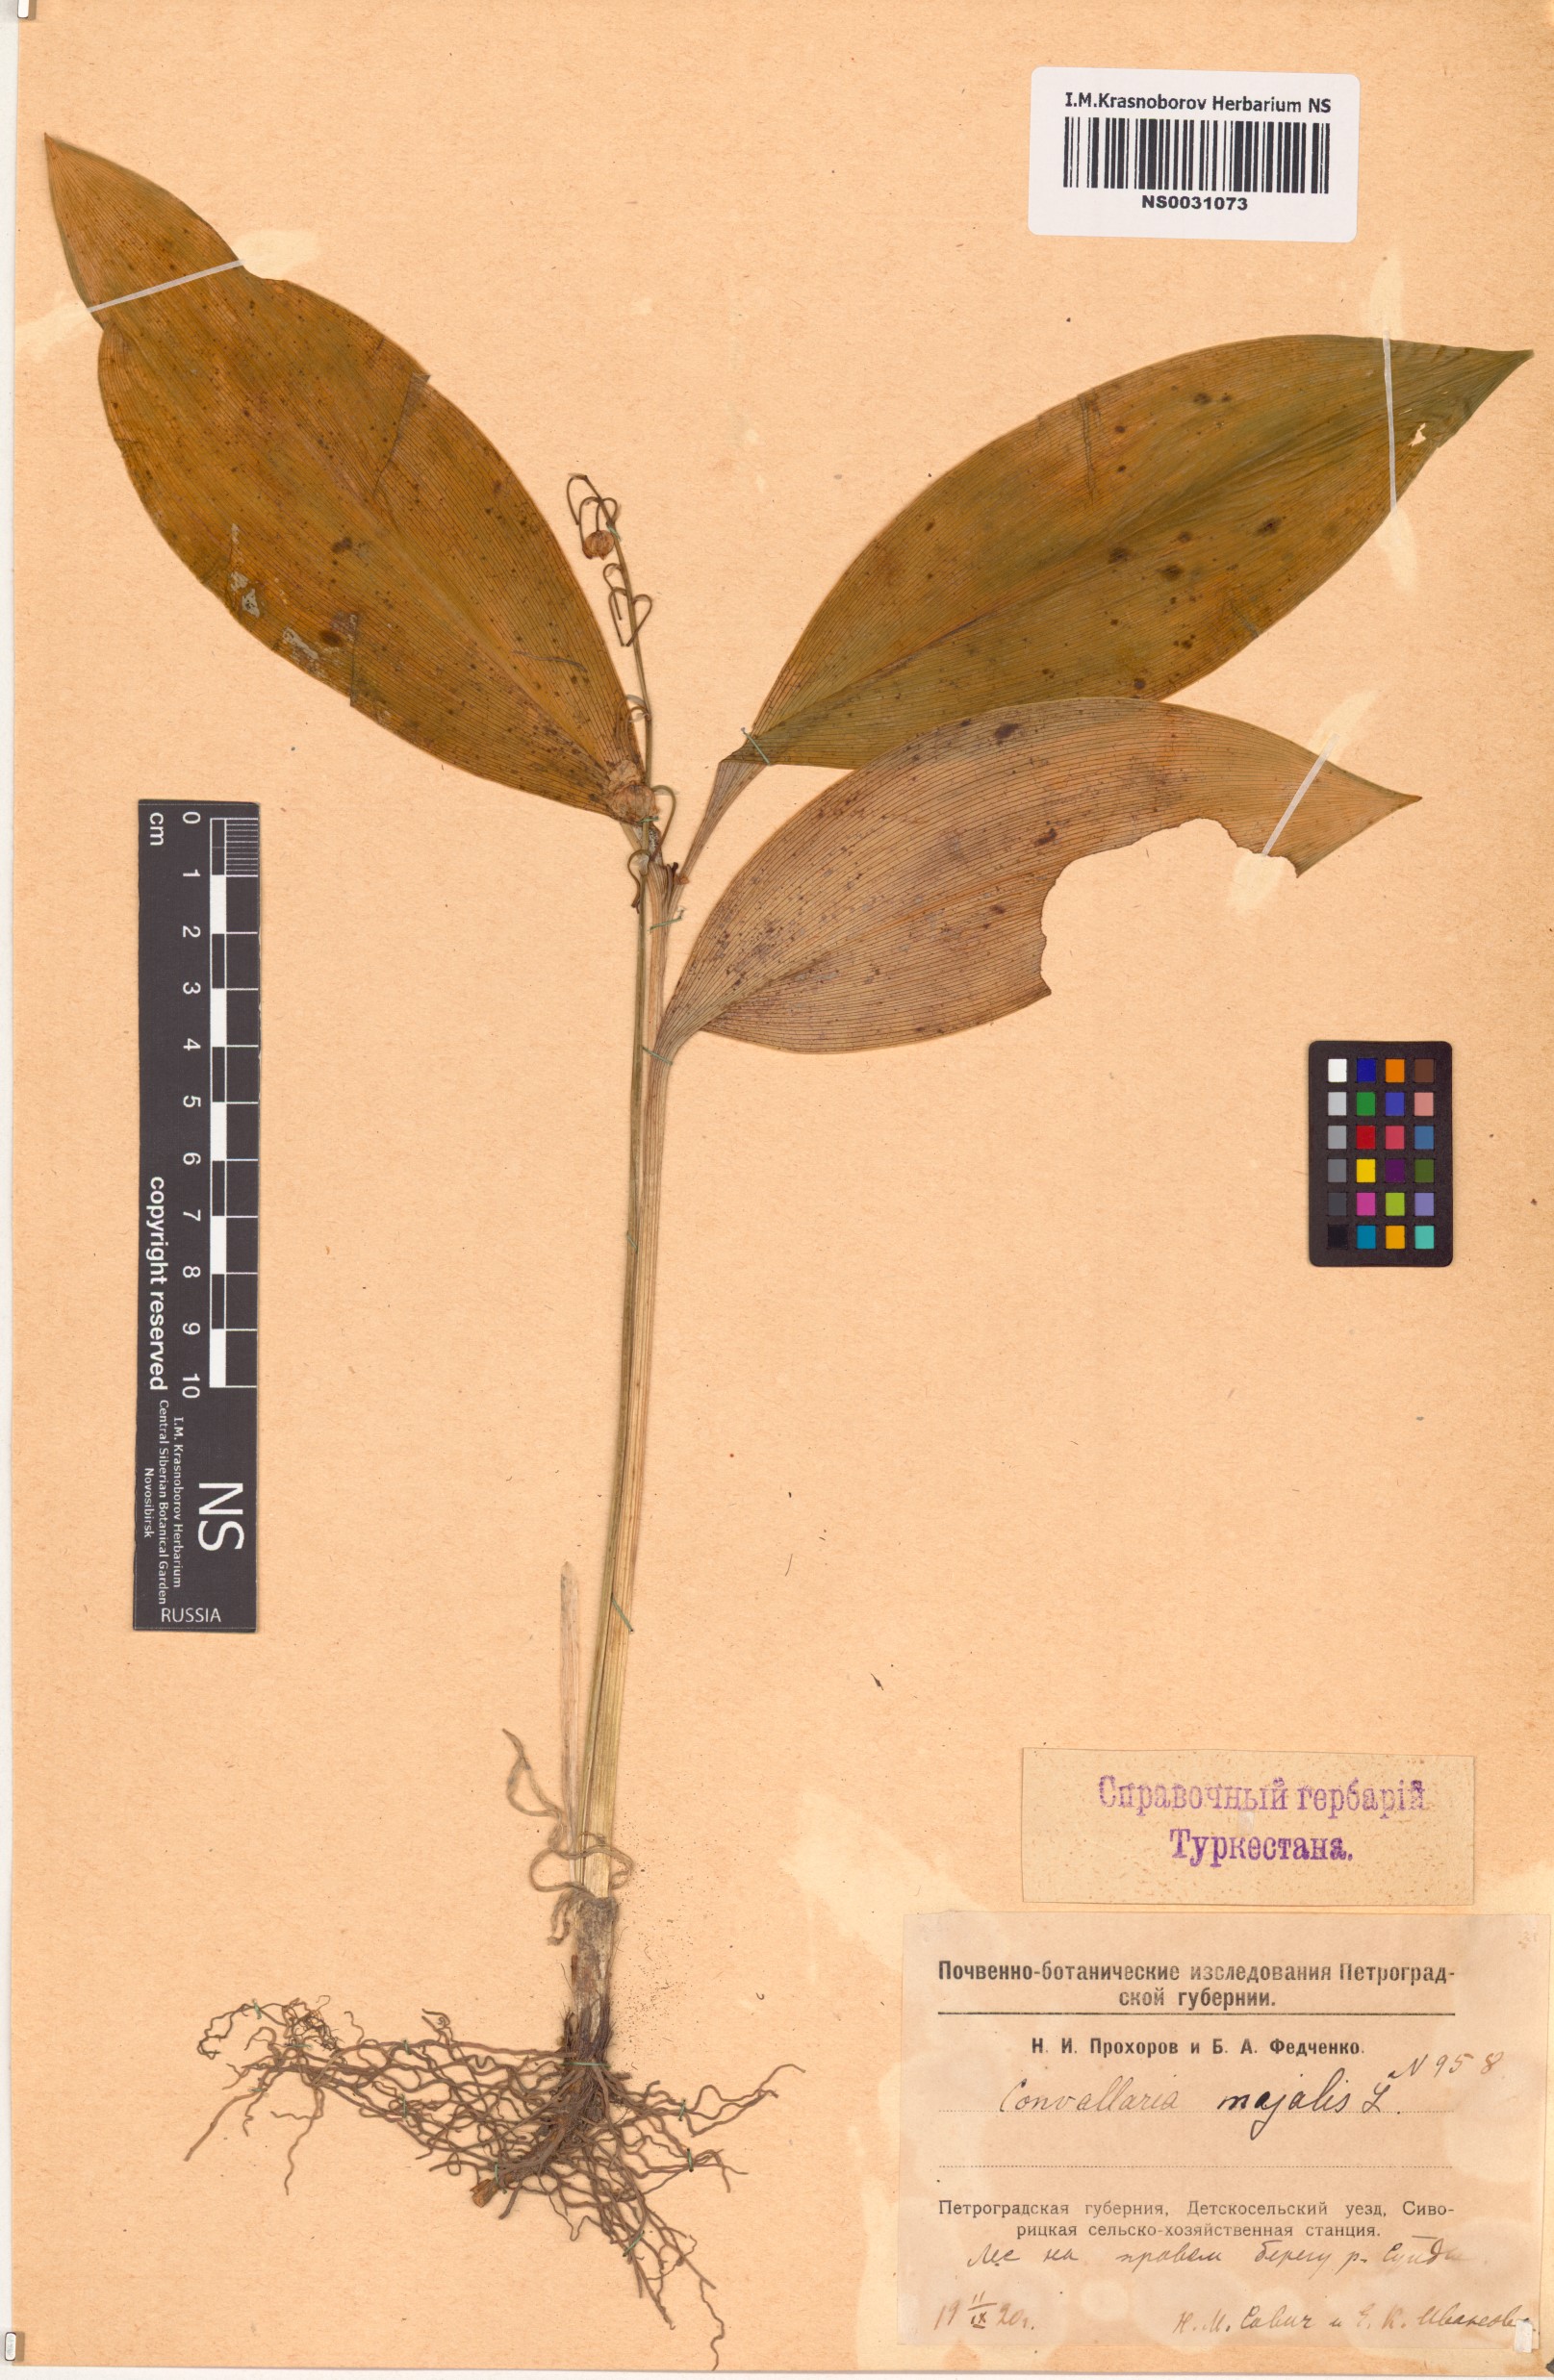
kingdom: Plantae
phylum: Tracheophyta
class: Liliopsida
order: Asparagales
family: Asparagaceae
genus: Convallaria
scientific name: Convallaria majalis
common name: Lily-of-the-valley
